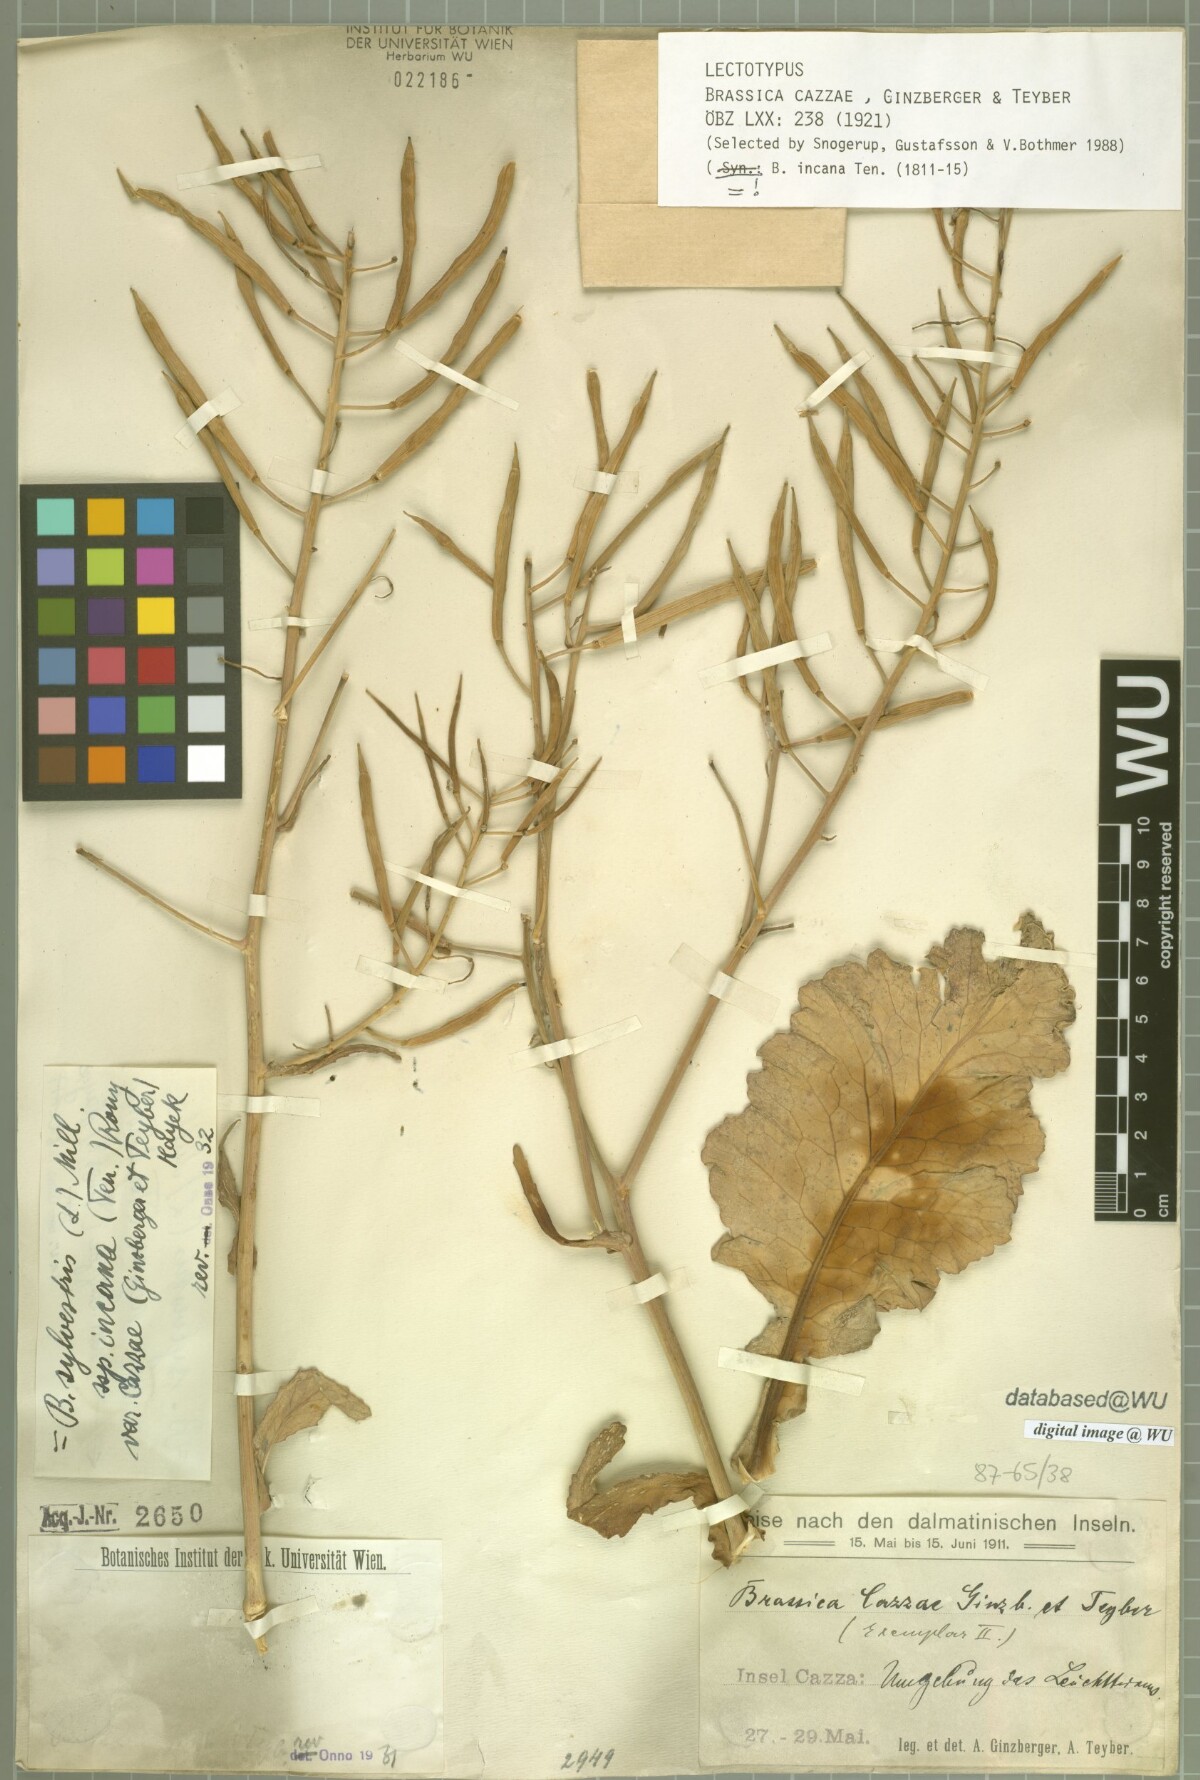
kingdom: Plantae
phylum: Tracheophyta
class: Magnoliopsida
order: Brassicales
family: Brassicaceae
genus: Brassica
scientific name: Brassica incana
